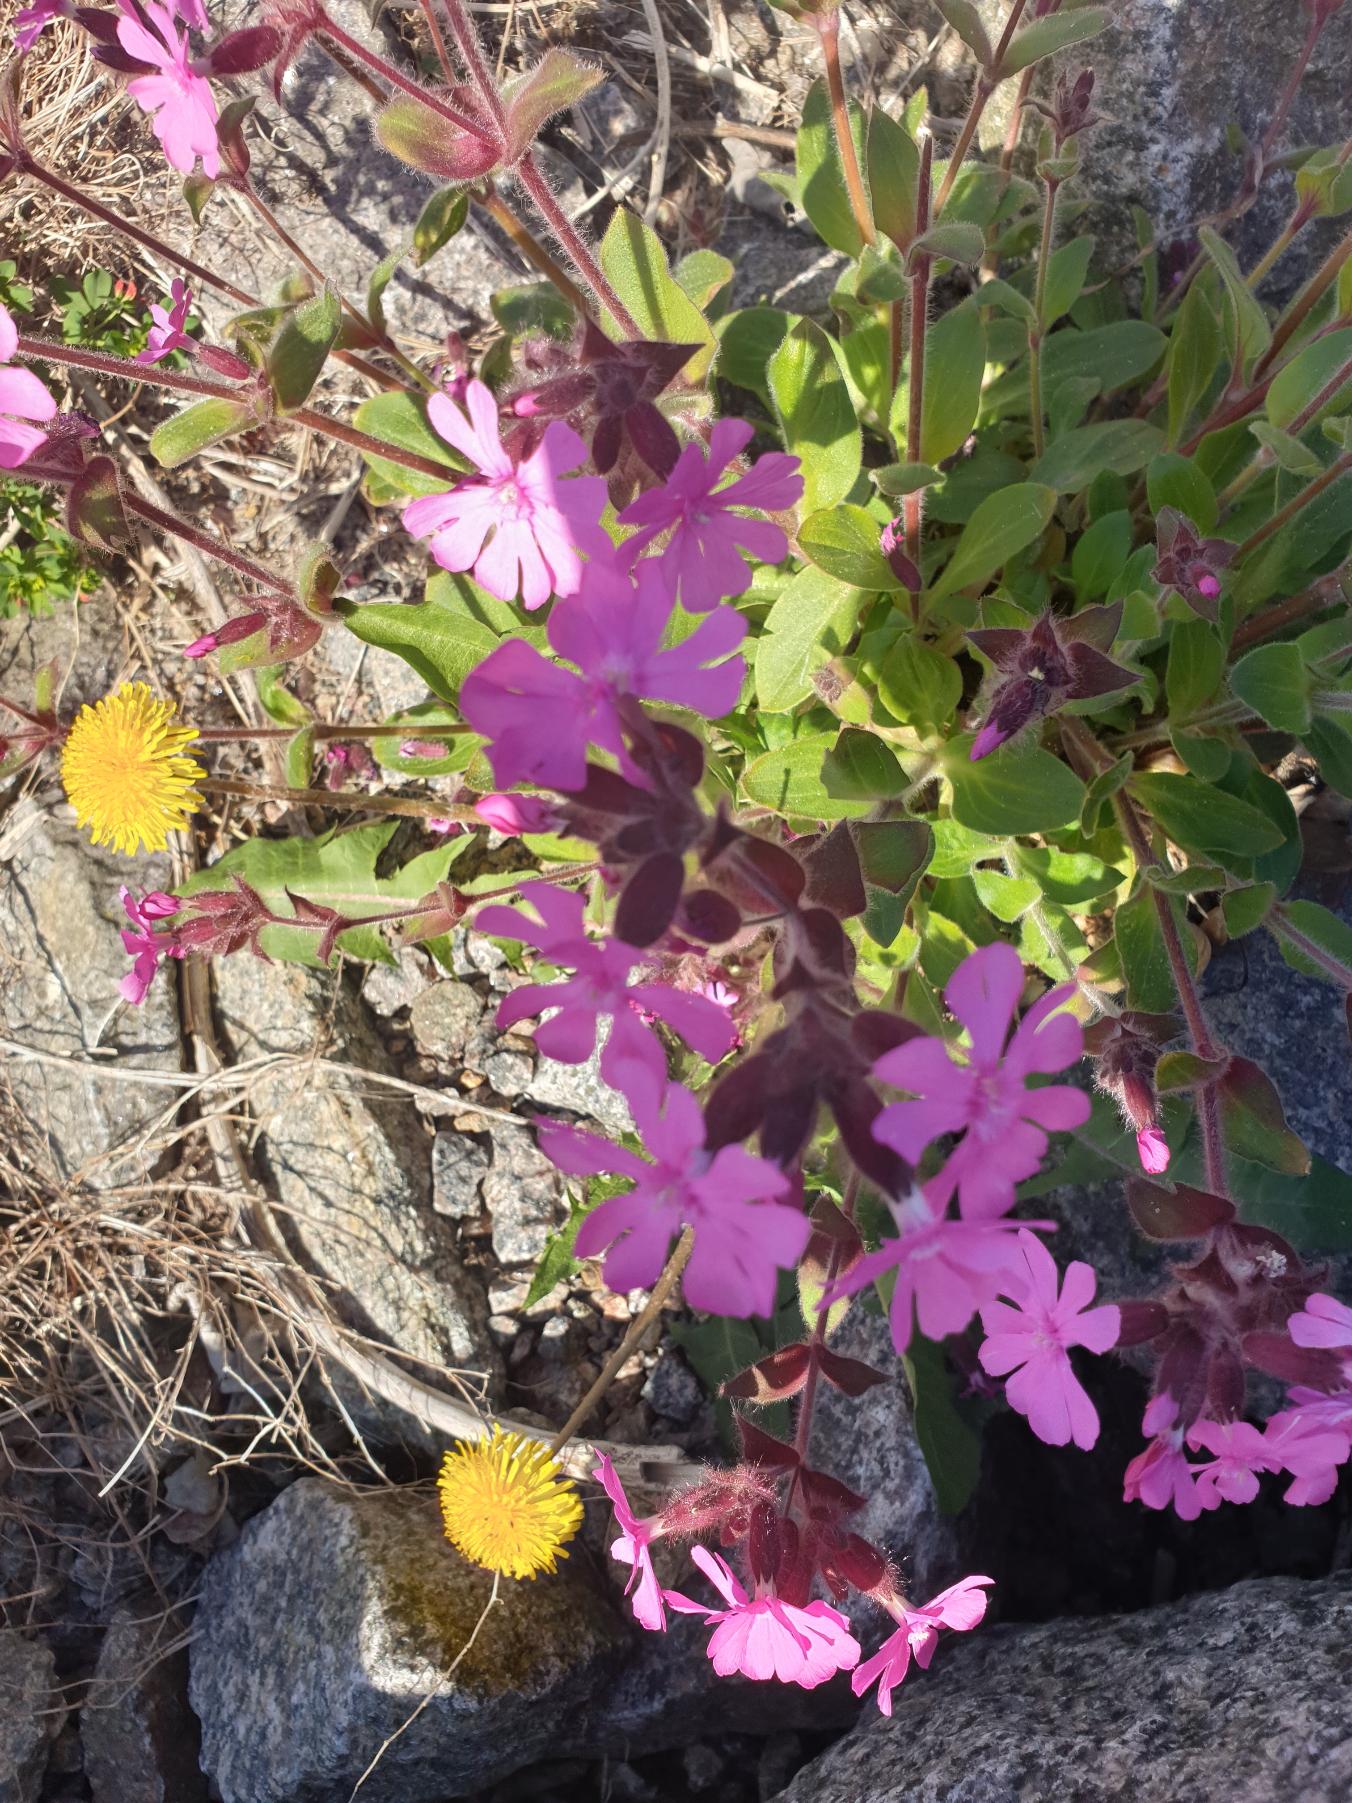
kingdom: Plantae
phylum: Tracheophyta
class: Magnoliopsida
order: Caryophyllales
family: Caryophyllaceae
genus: Silene
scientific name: Silene dioica
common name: Dagpragtstjerne
